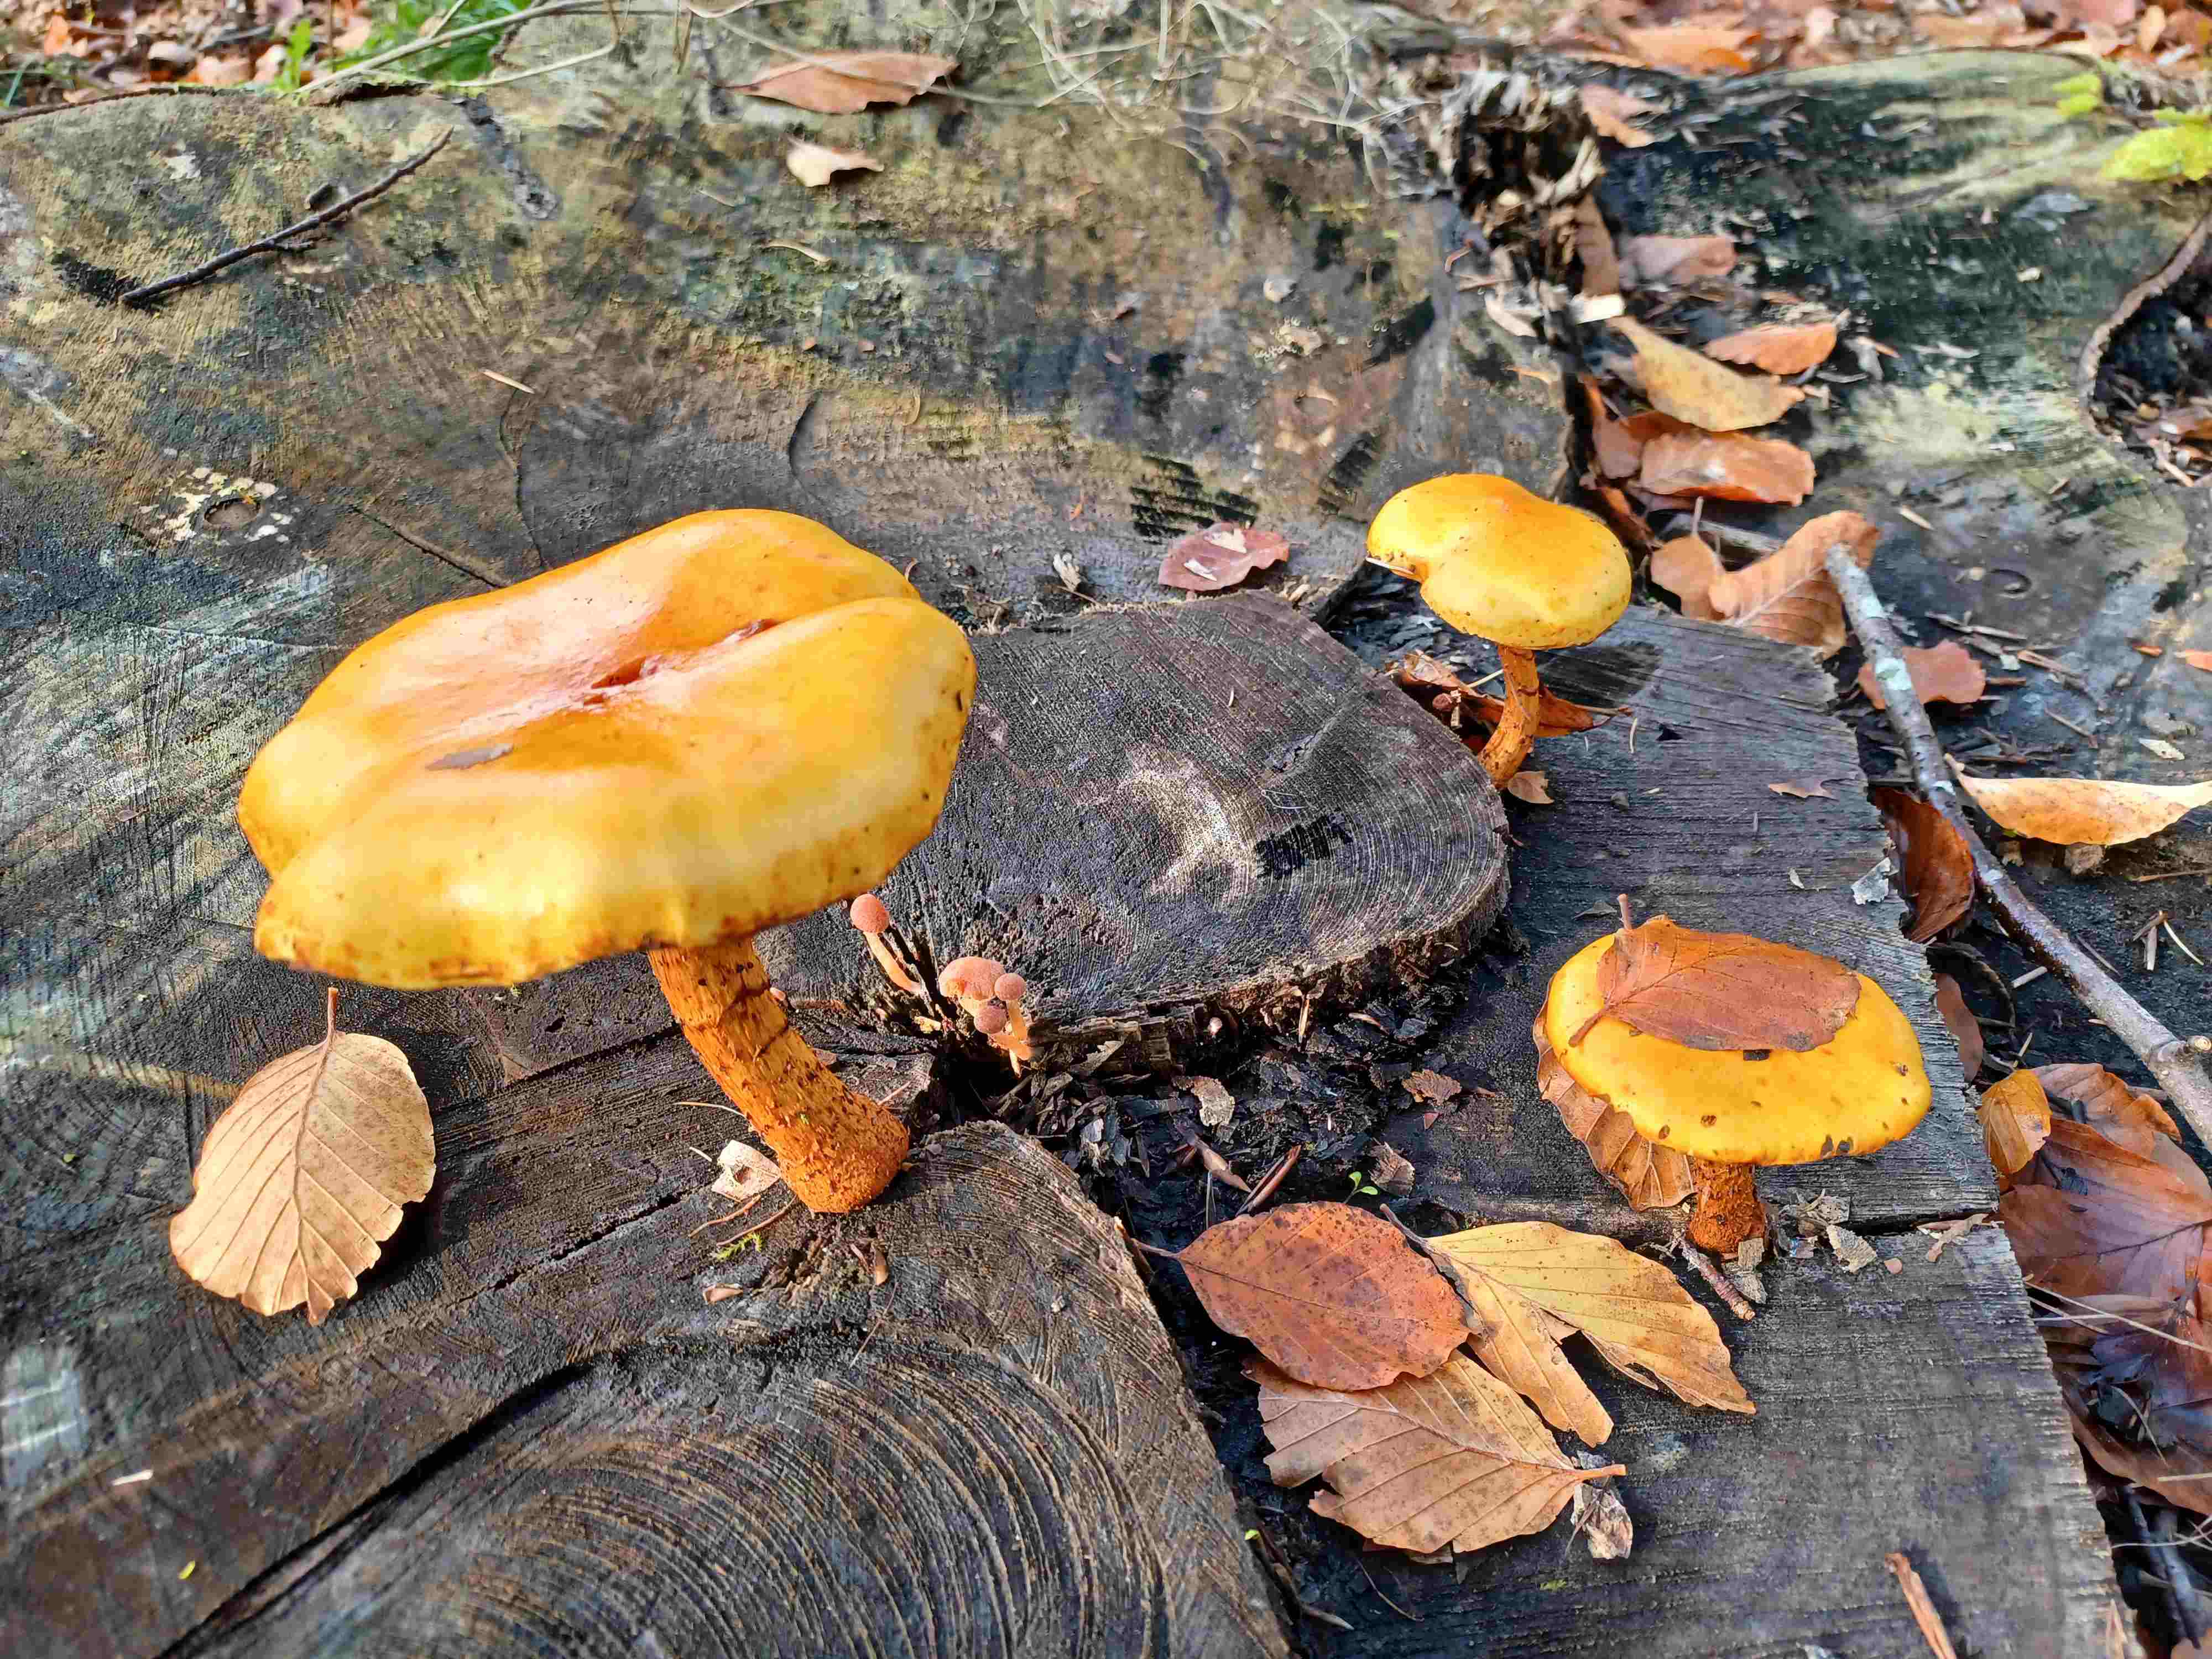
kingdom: Fungi
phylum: Basidiomycota
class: Agaricomycetes
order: Agaricales
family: Strophariaceae
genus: Pholiota
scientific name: Pholiota adiposa
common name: højtsiddende skælhat
